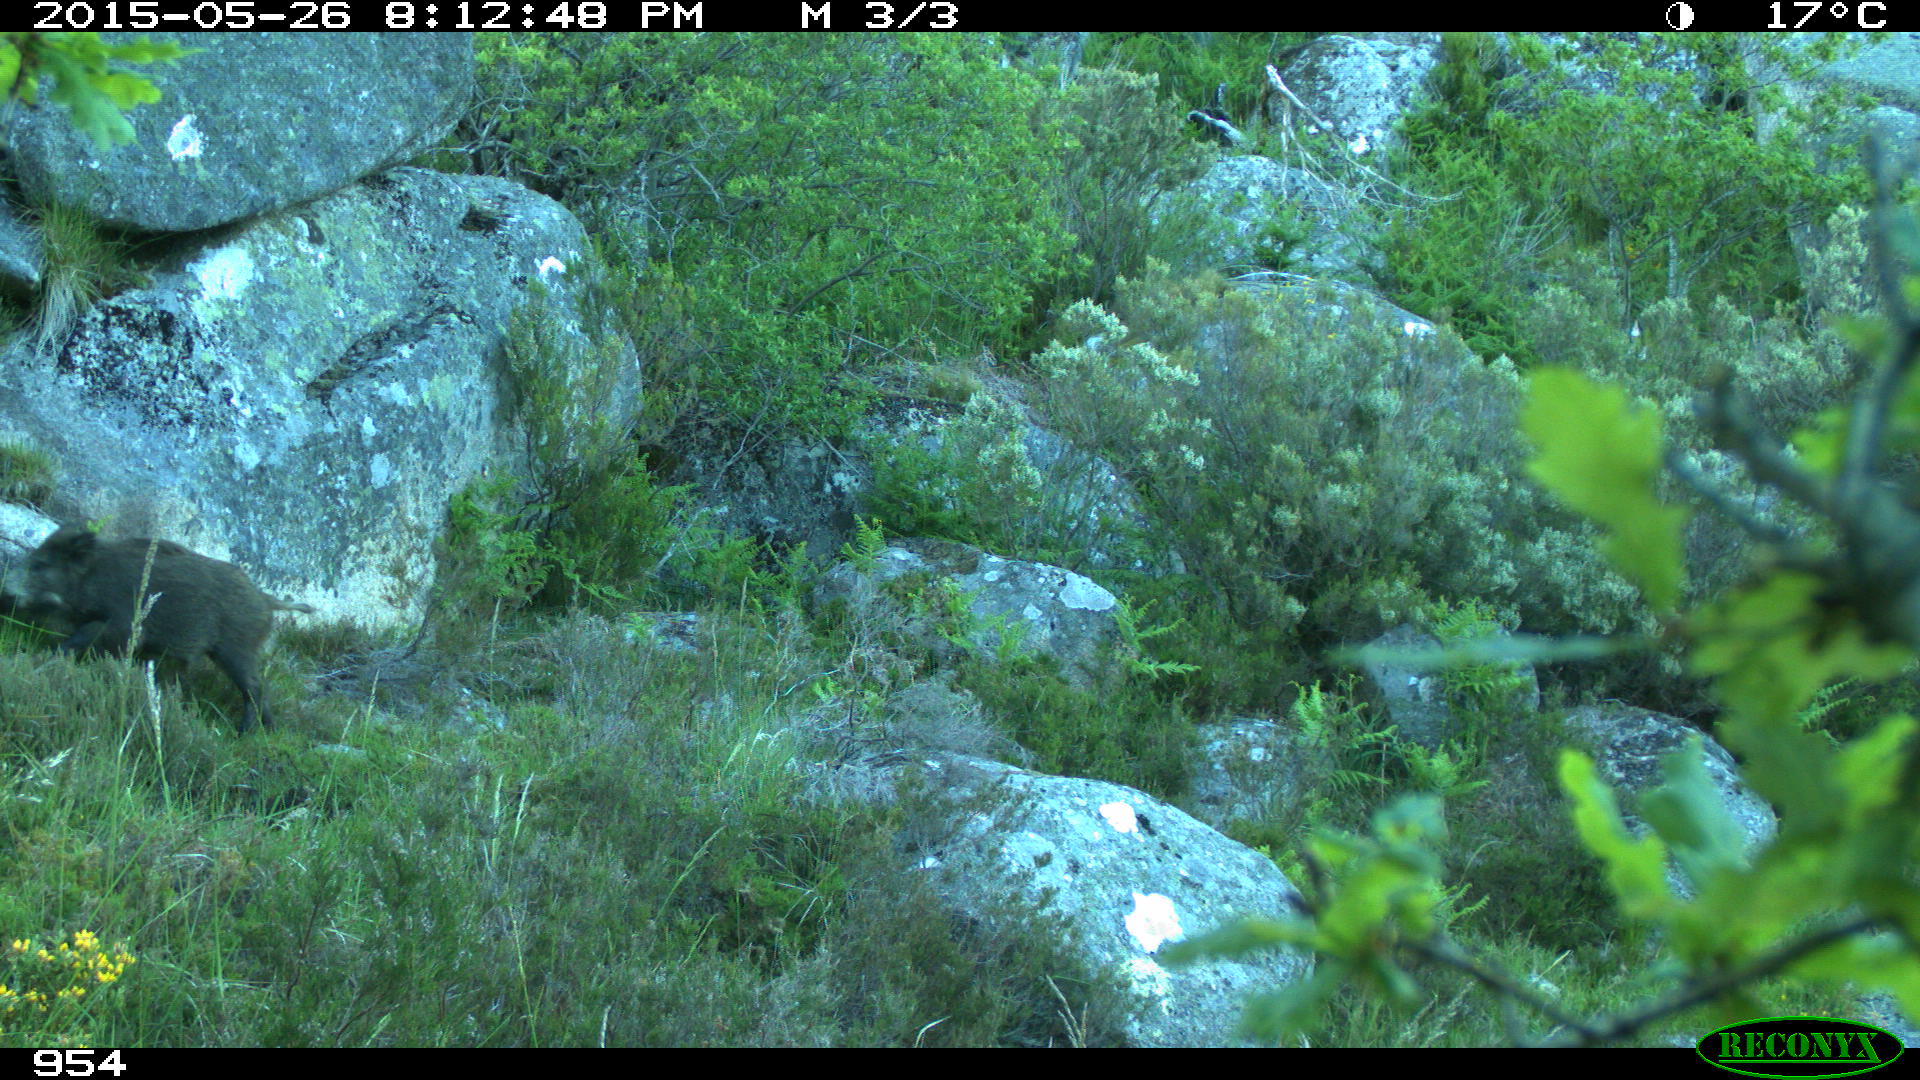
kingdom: Animalia
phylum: Chordata
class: Mammalia
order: Artiodactyla
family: Suidae
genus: Sus
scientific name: Sus scrofa
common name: Wild boar
